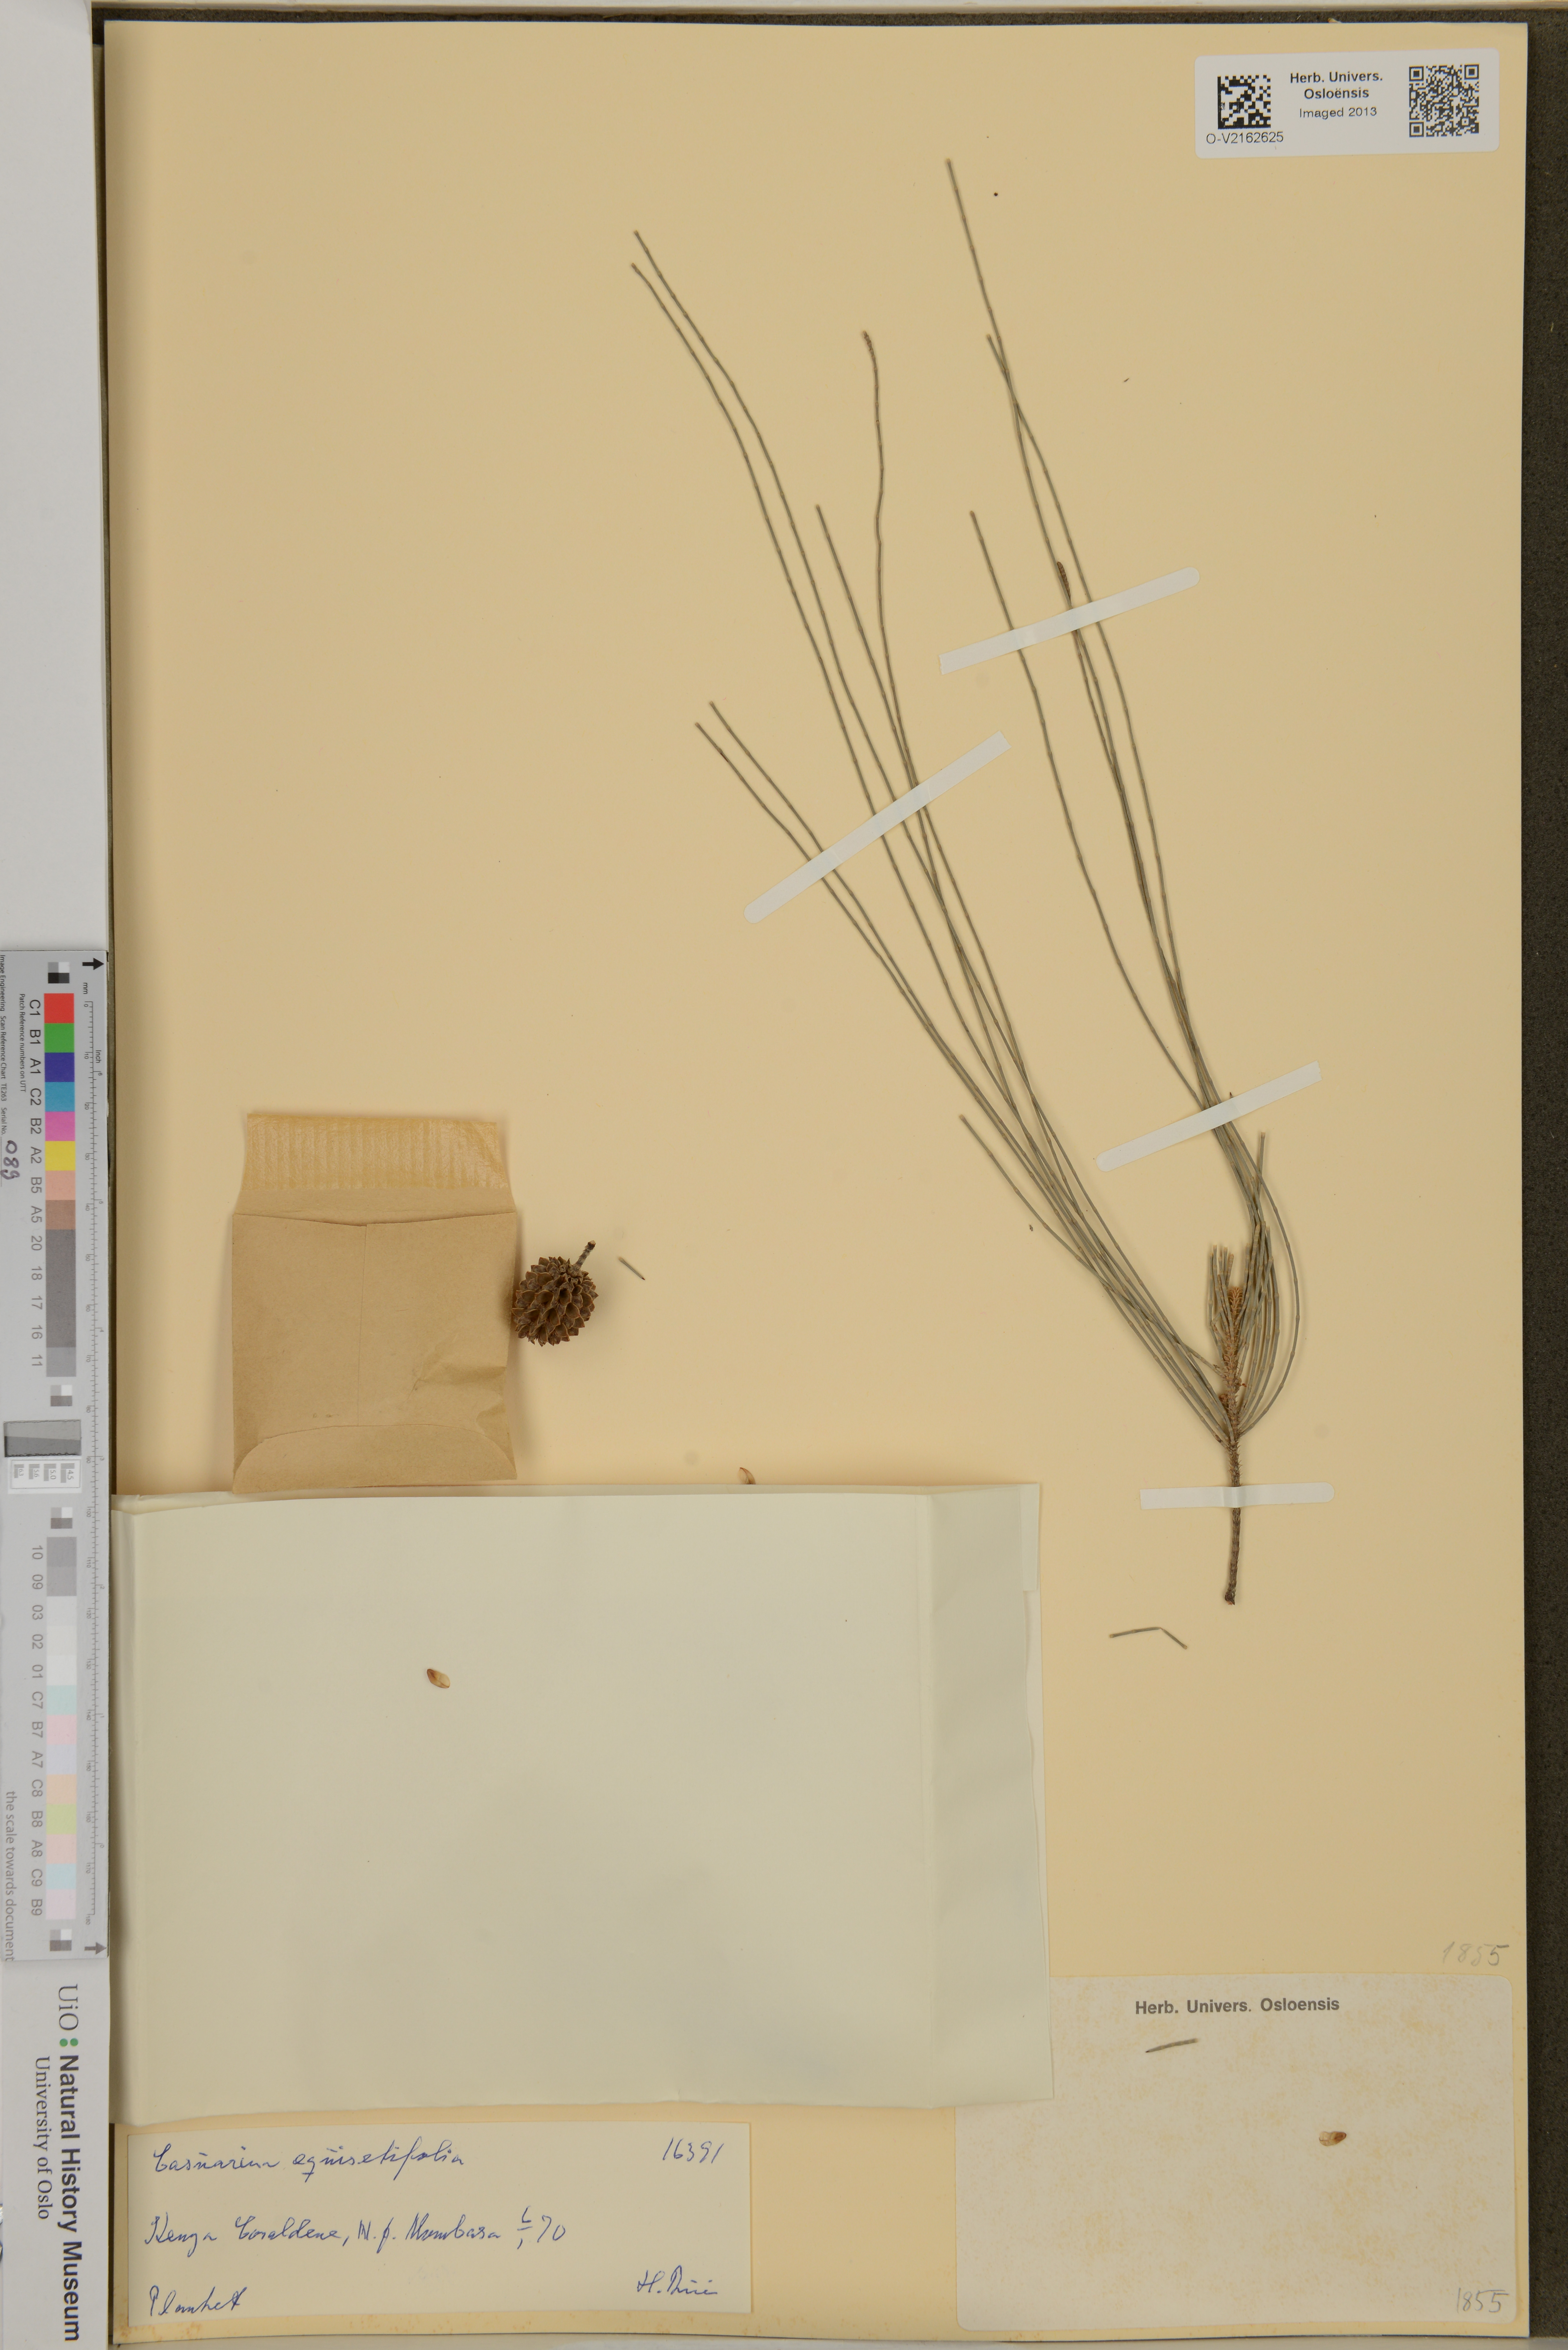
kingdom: Plantae
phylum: Tracheophyta
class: Magnoliopsida
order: Fagales
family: Casuarinaceae
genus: Casuarina
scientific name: Casuarina equisetifolia
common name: Beach sheoak
